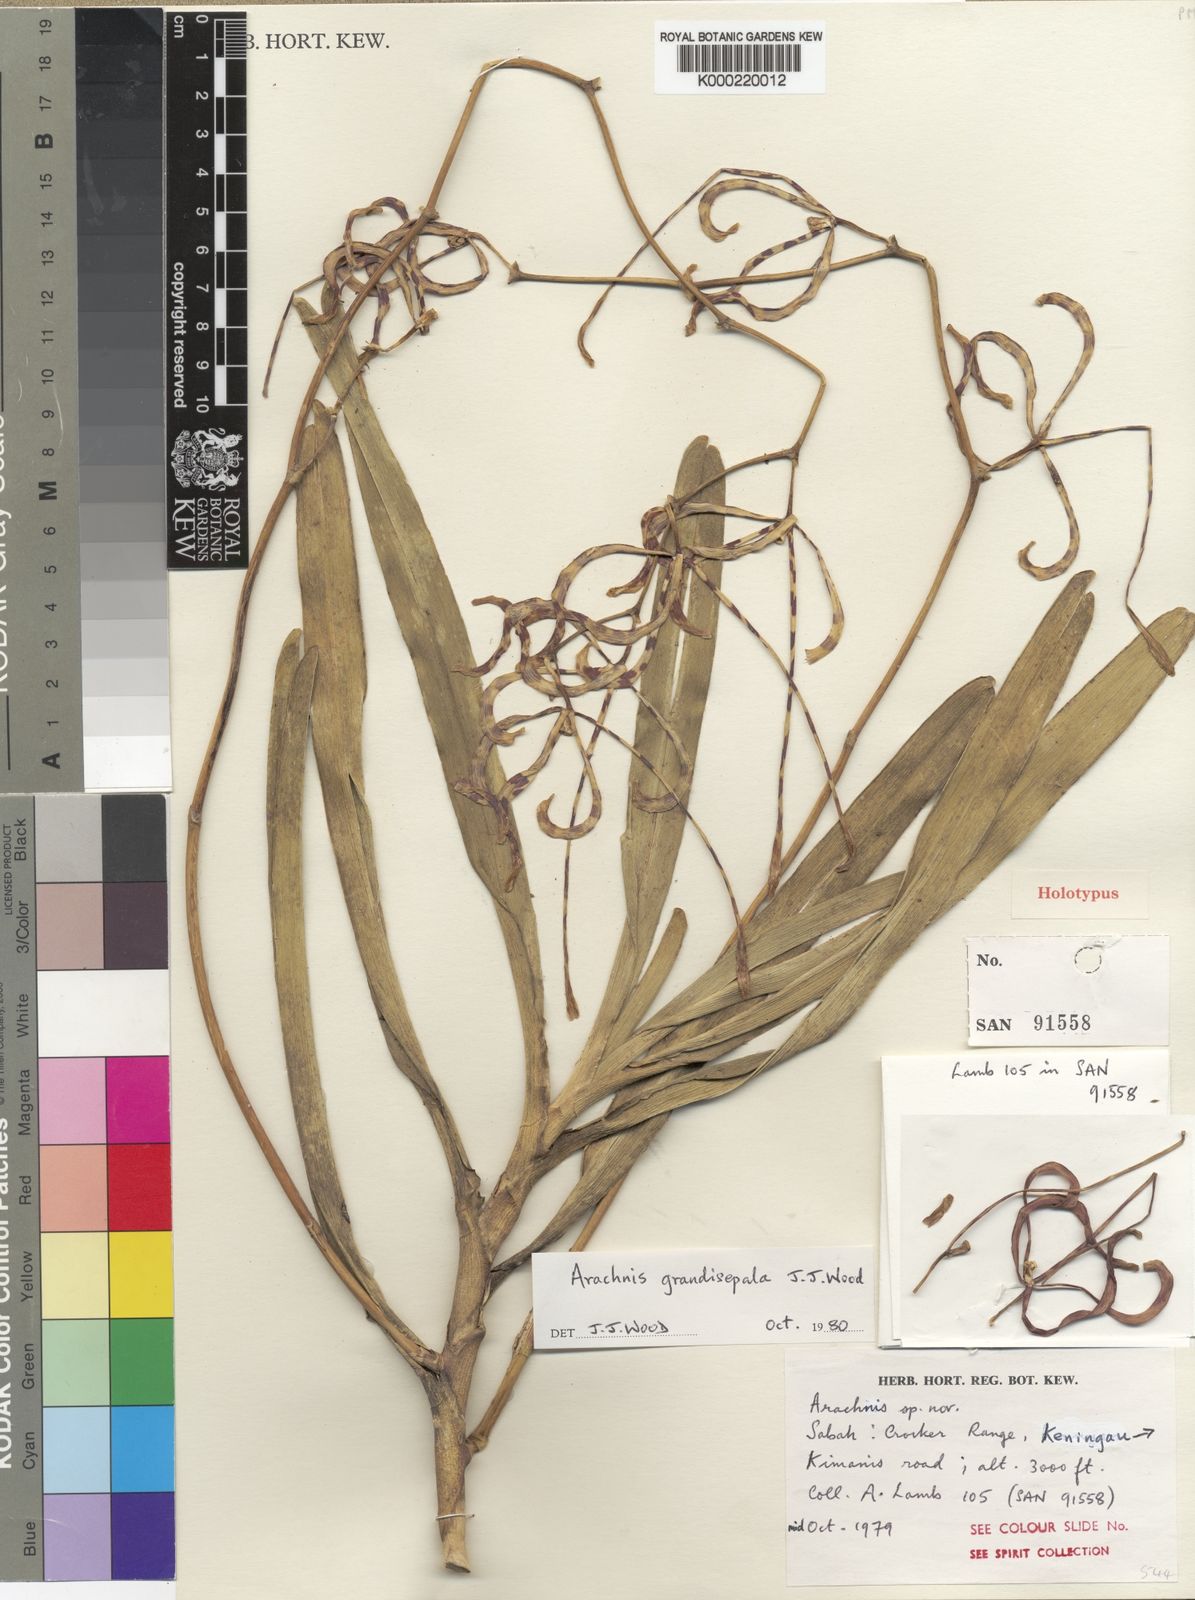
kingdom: Plantae
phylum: Tracheophyta
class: Liliopsida
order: Asparagales
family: Orchidaceae
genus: Arachnis
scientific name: Arachnis grandisepala
